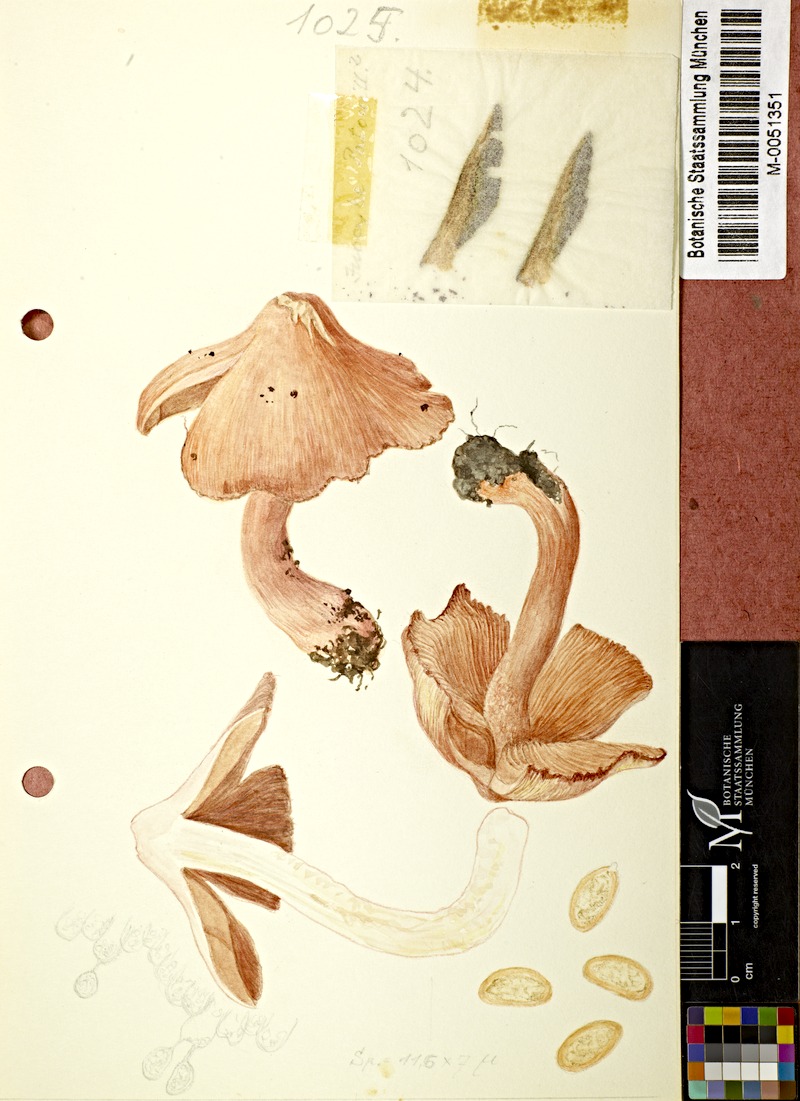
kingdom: Fungi
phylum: Basidiomycota
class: Agaricomycetes
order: Agaricales
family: Inocybaceae
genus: Inosperma
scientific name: Inosperma erubescens
